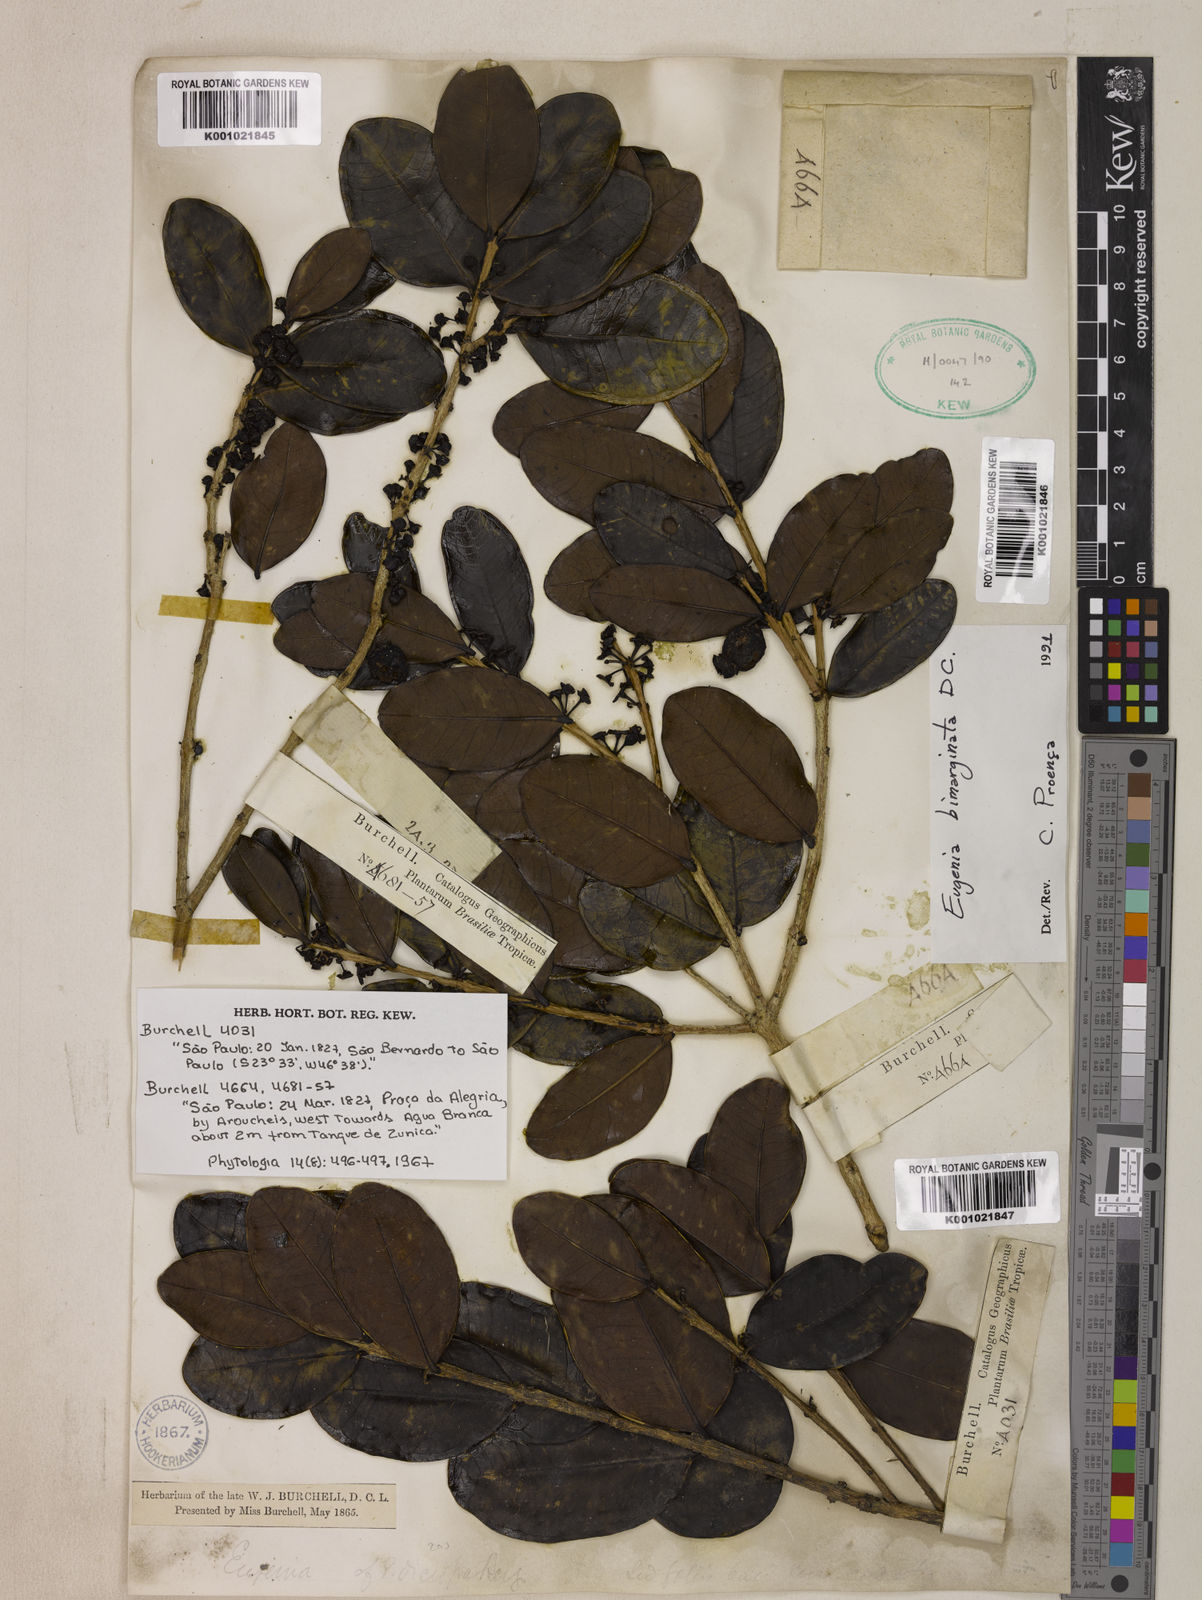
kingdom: Plantae
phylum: Tracheophyta
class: Magnoliopsida
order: Myrtales
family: Myrtaceae
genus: Eugenia
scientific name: Eugenia bimarginata
